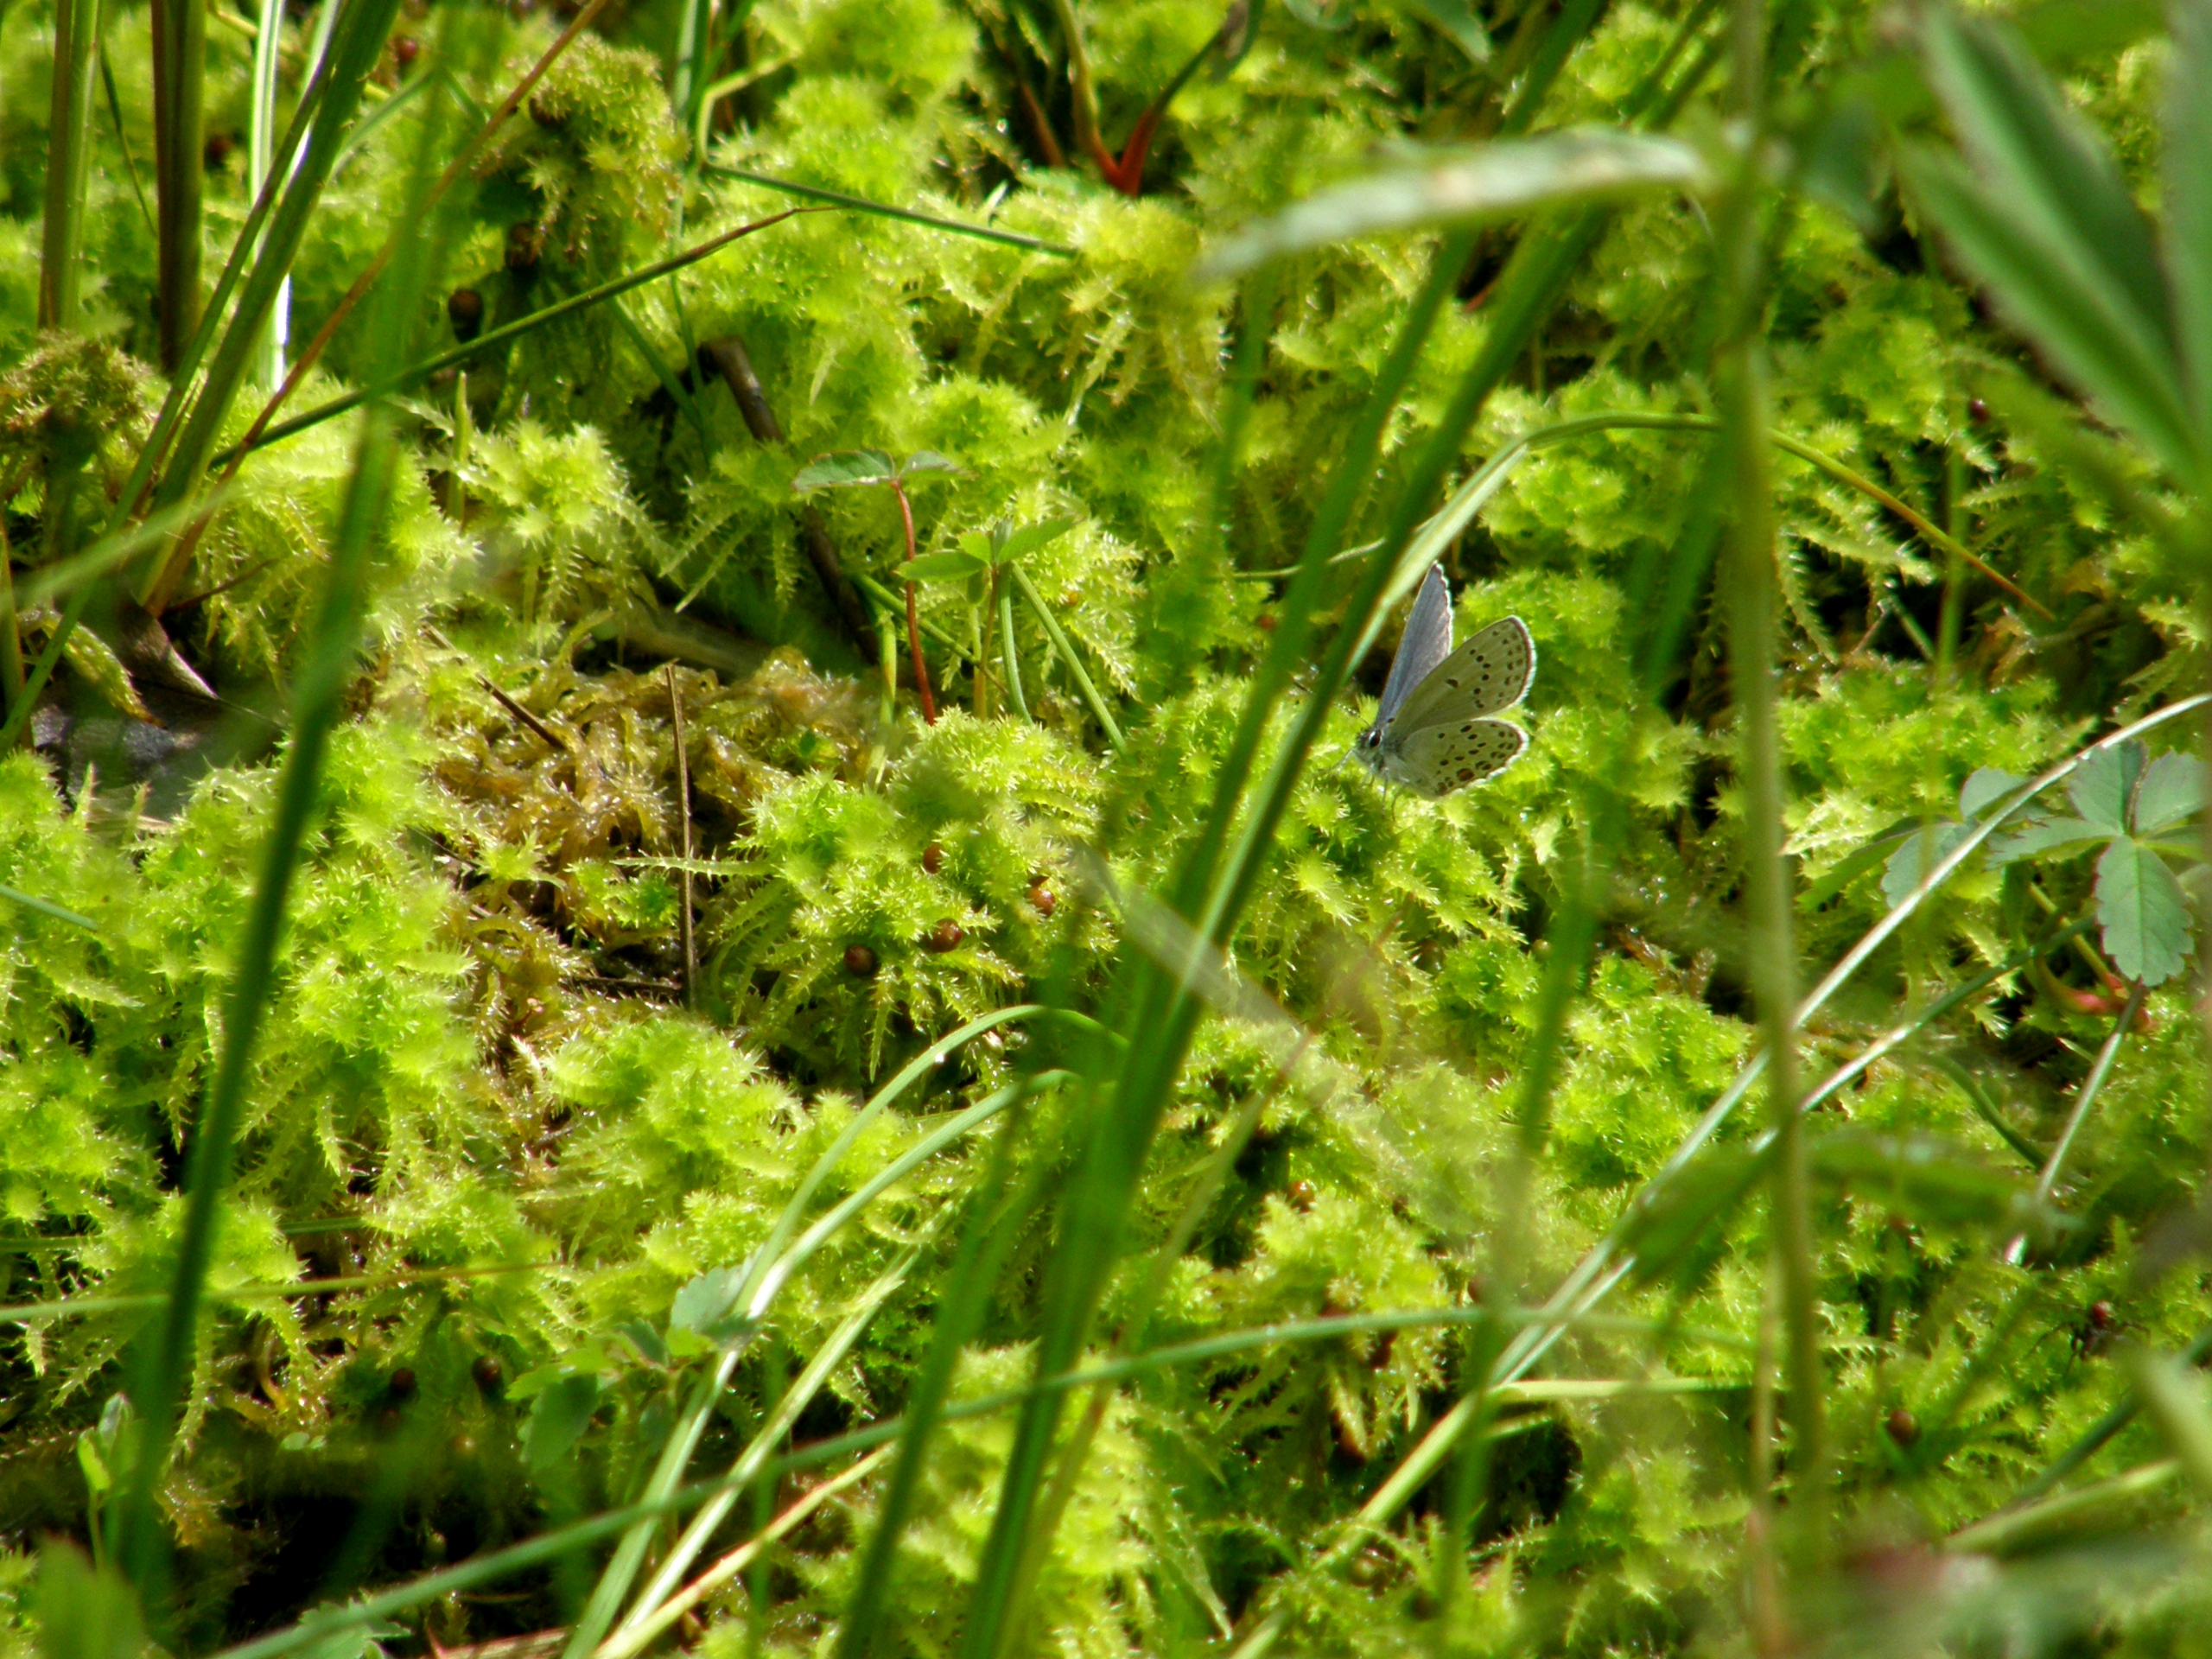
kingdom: Animalia
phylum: Arthropoda
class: Insecta
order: Lepidoptera
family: Lycaenidae
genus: Vacciniina
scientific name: Vacciniina optilete
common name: Bølleblåfugl
